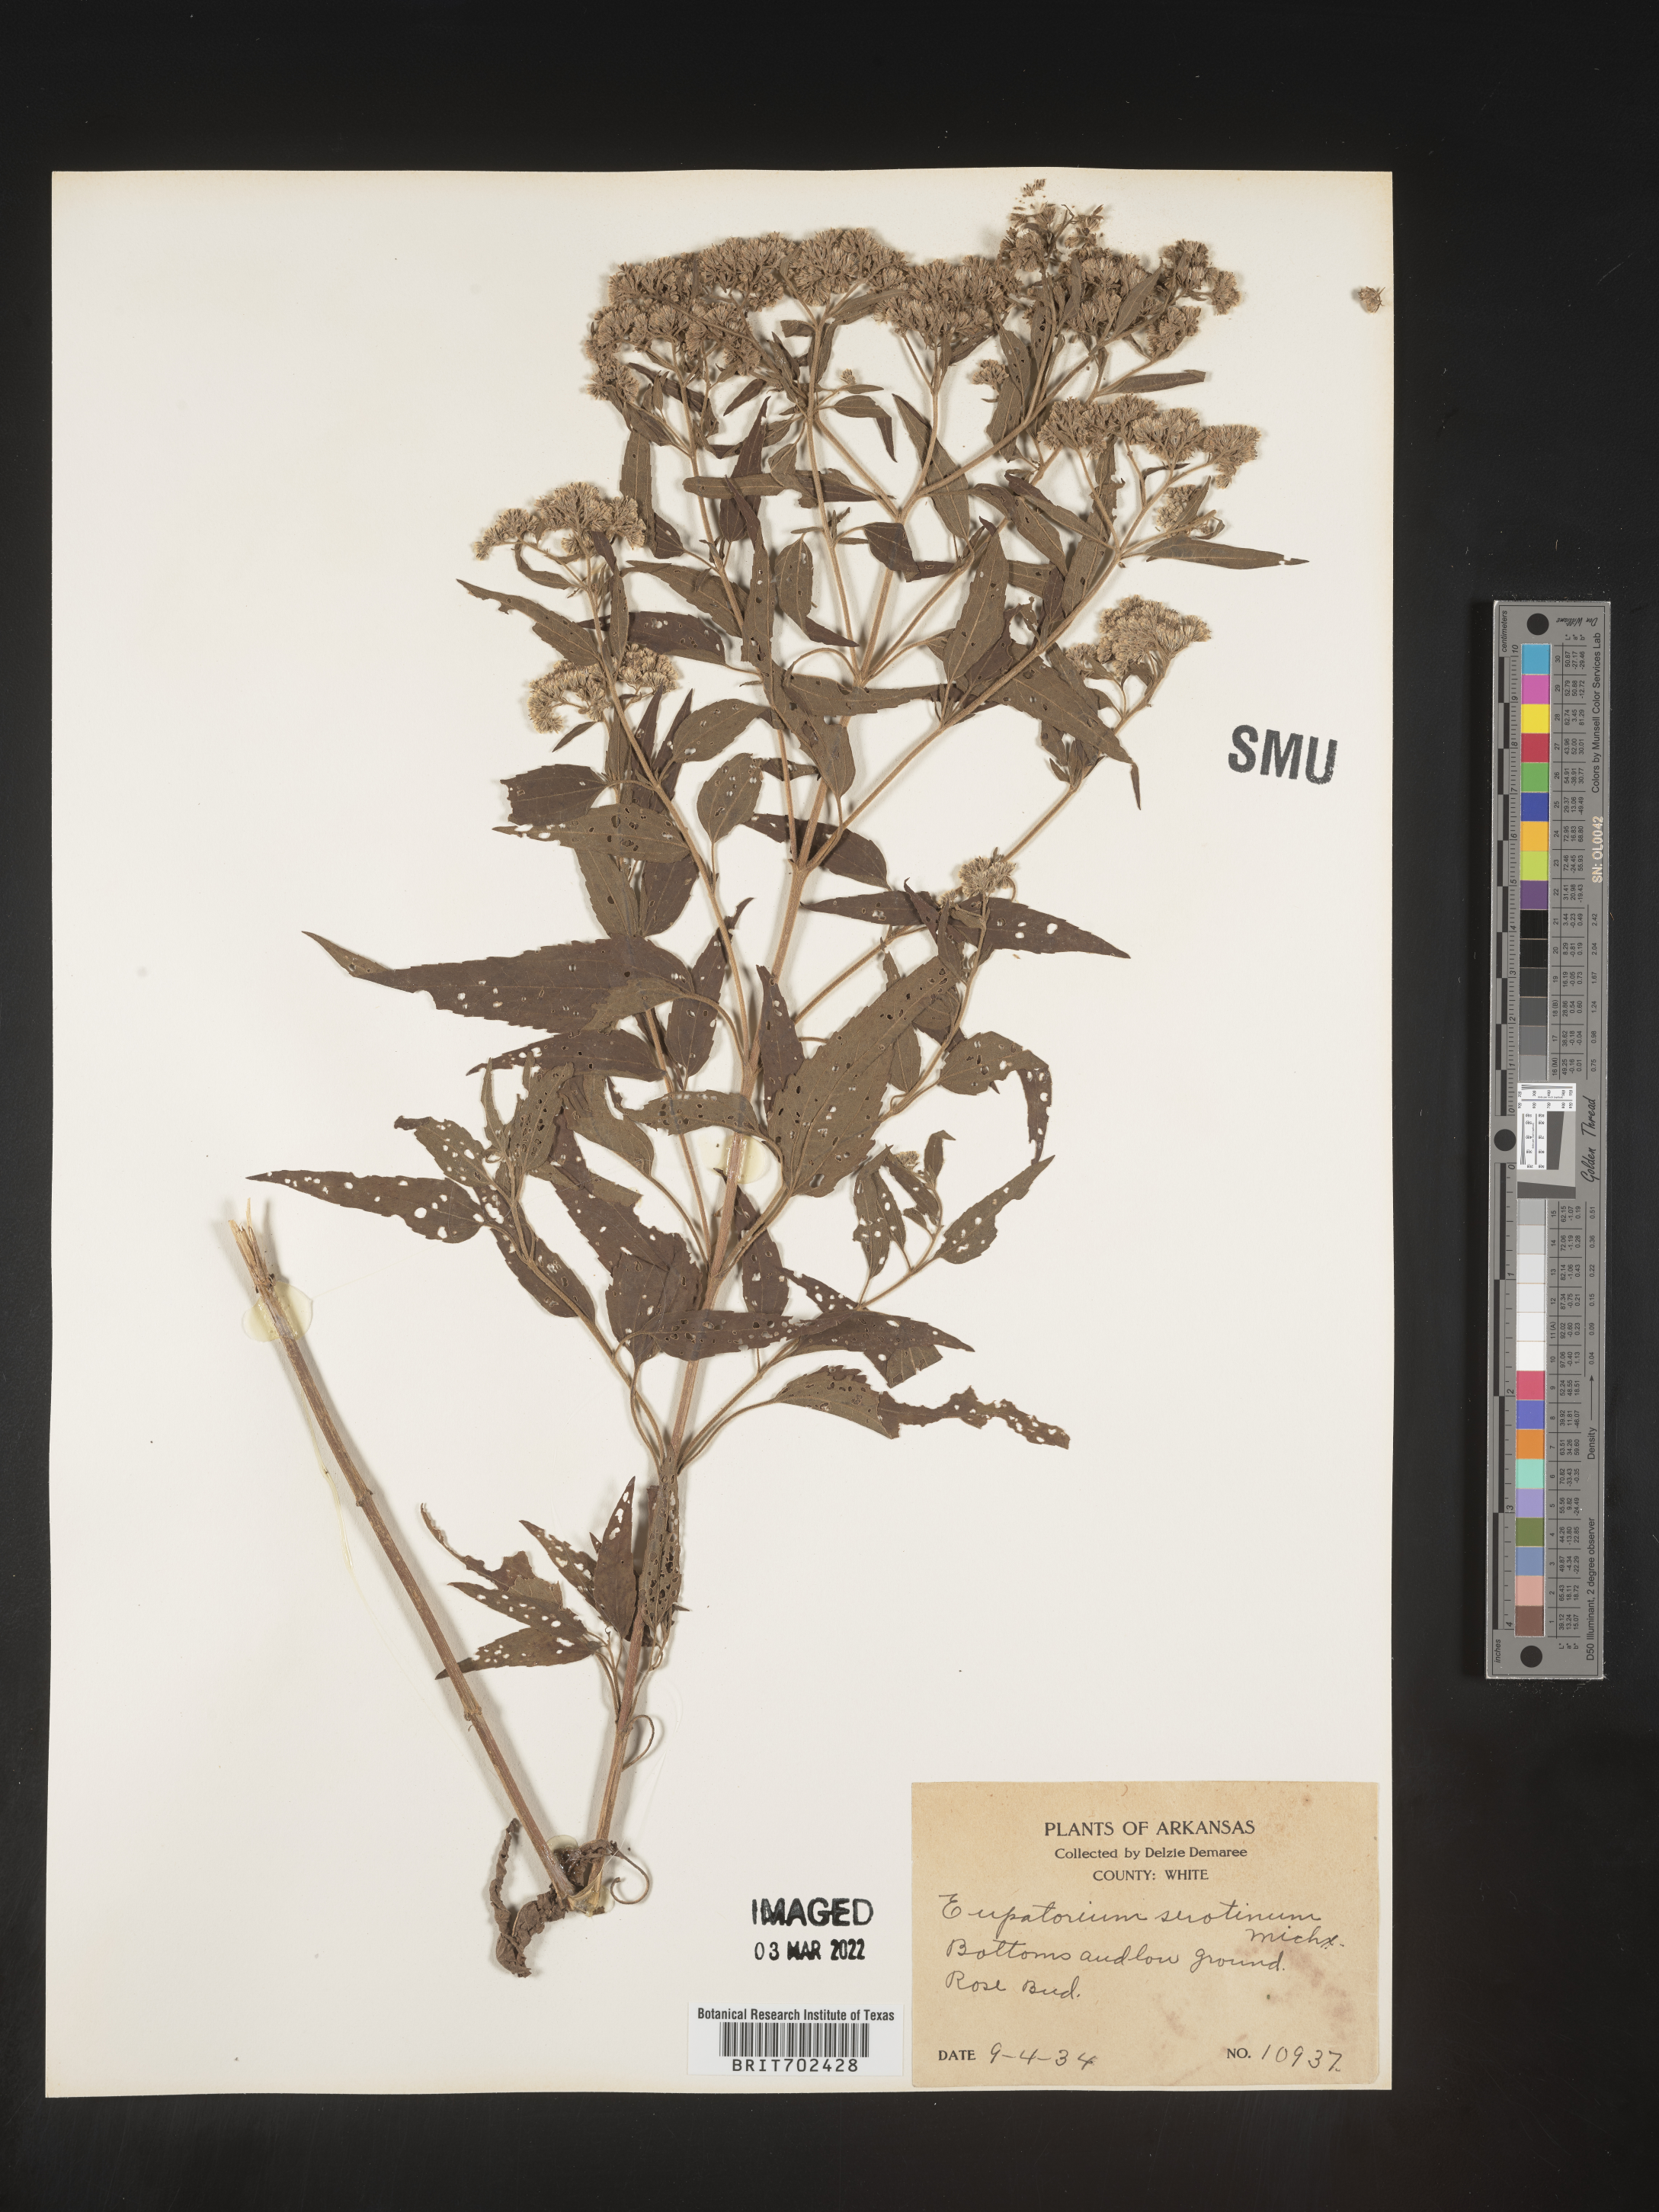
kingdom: Plantae
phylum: Tracheophyta
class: Magnoliopsida
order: Asterales
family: Asteraceae
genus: Eupatorium
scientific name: Eupatorium serotinum
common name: Late boneset
